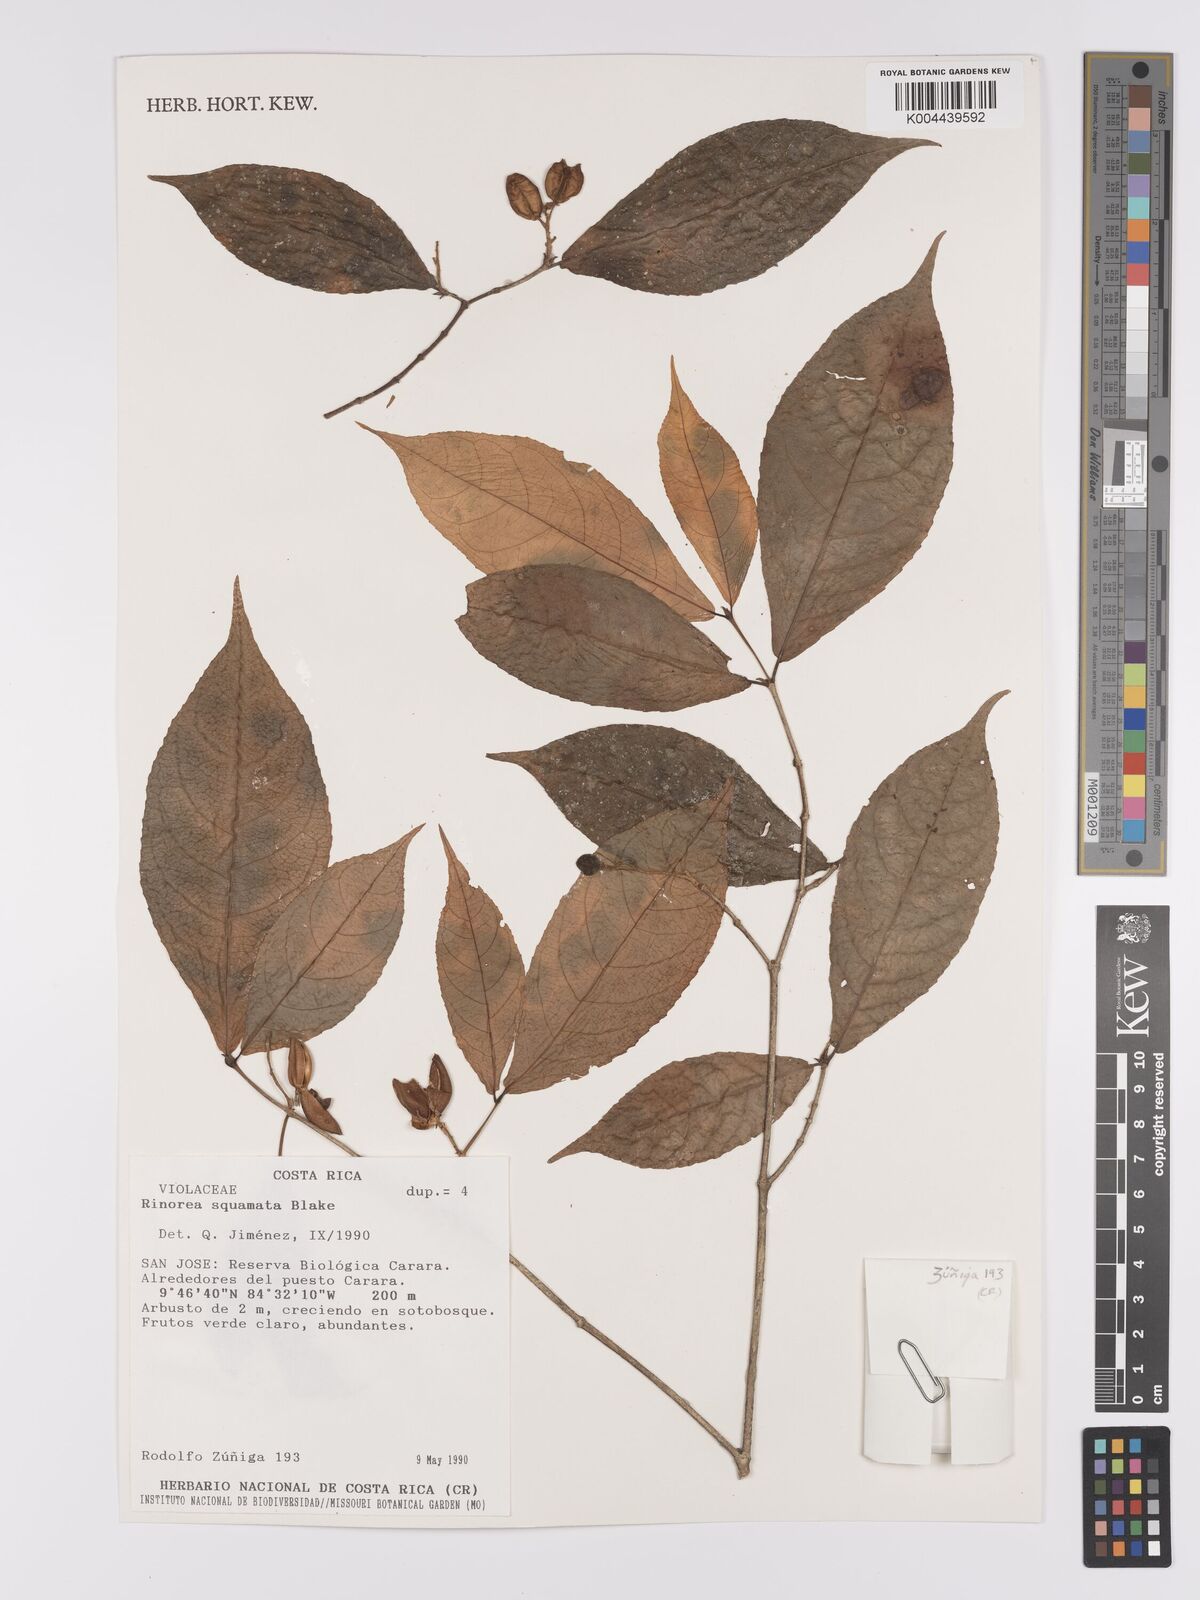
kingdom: Plantae
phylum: Tracheophyta
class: Magnoliopsida
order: Malpighiales
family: Violaceae
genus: Rinorea
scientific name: Rinorea squamata
